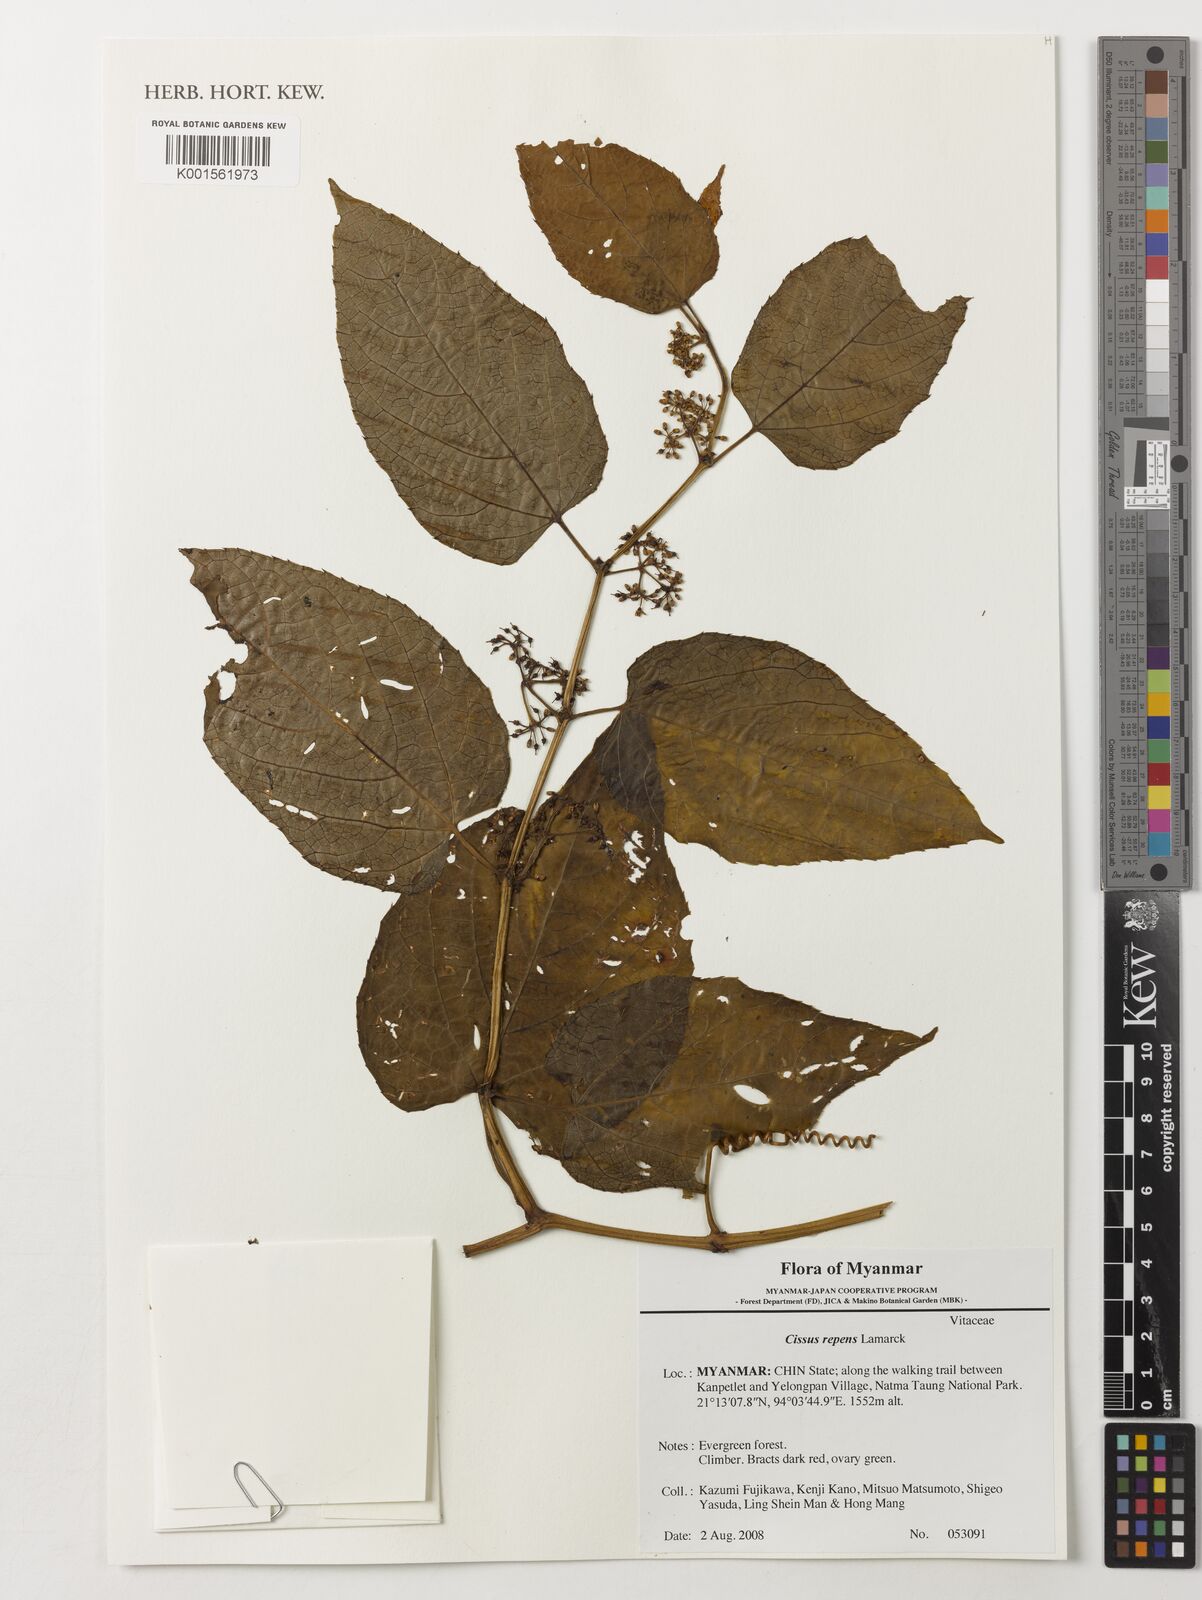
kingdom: Plantae
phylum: Tracheophyta
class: Magnoliopsida
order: Vitales
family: Vitaceae
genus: Cissus
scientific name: Cissus repens
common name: Cissus
